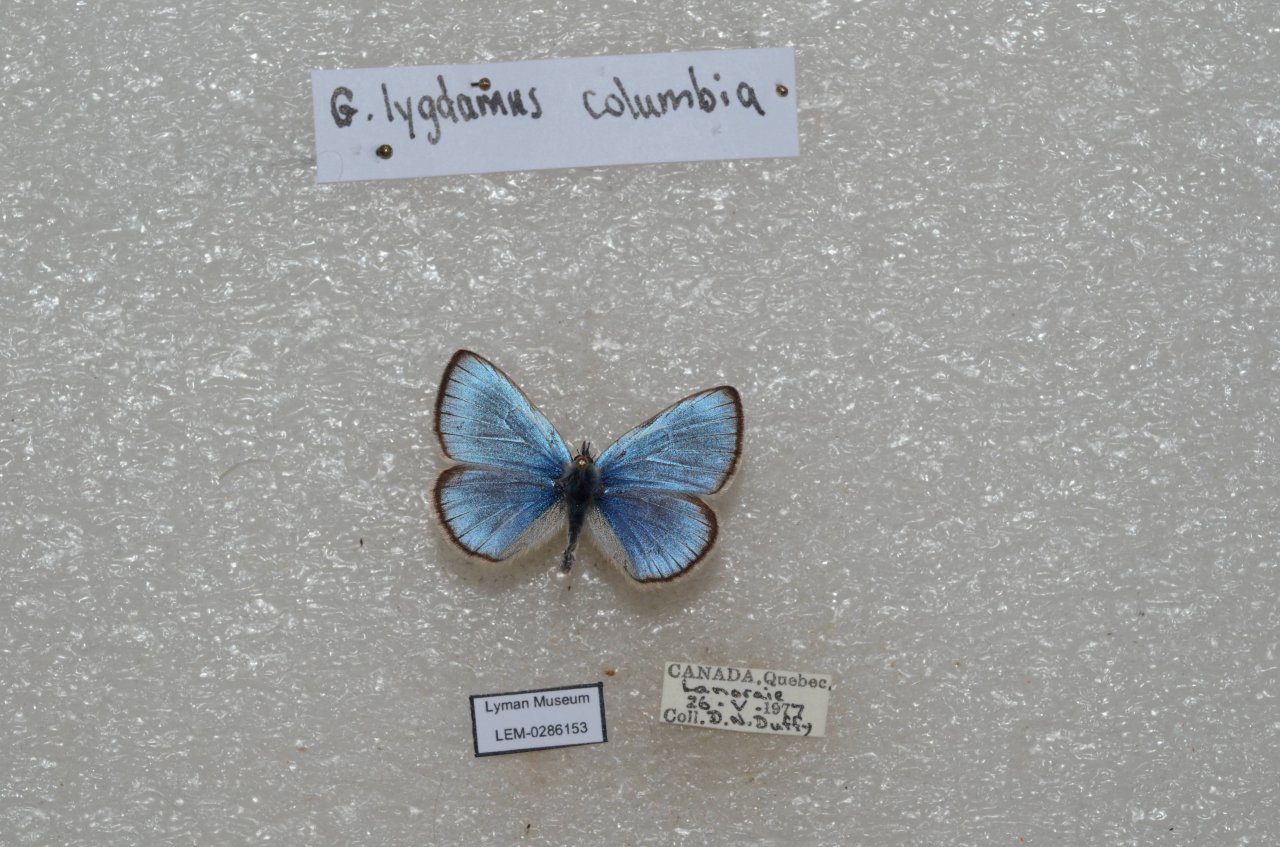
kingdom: Animalia
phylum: Arthropoda
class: Insecta
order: Lepidoptera
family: Lycaenidae
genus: Glaucopsyche
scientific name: Glaucopsyche lygdamus
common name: Silvery Blue
